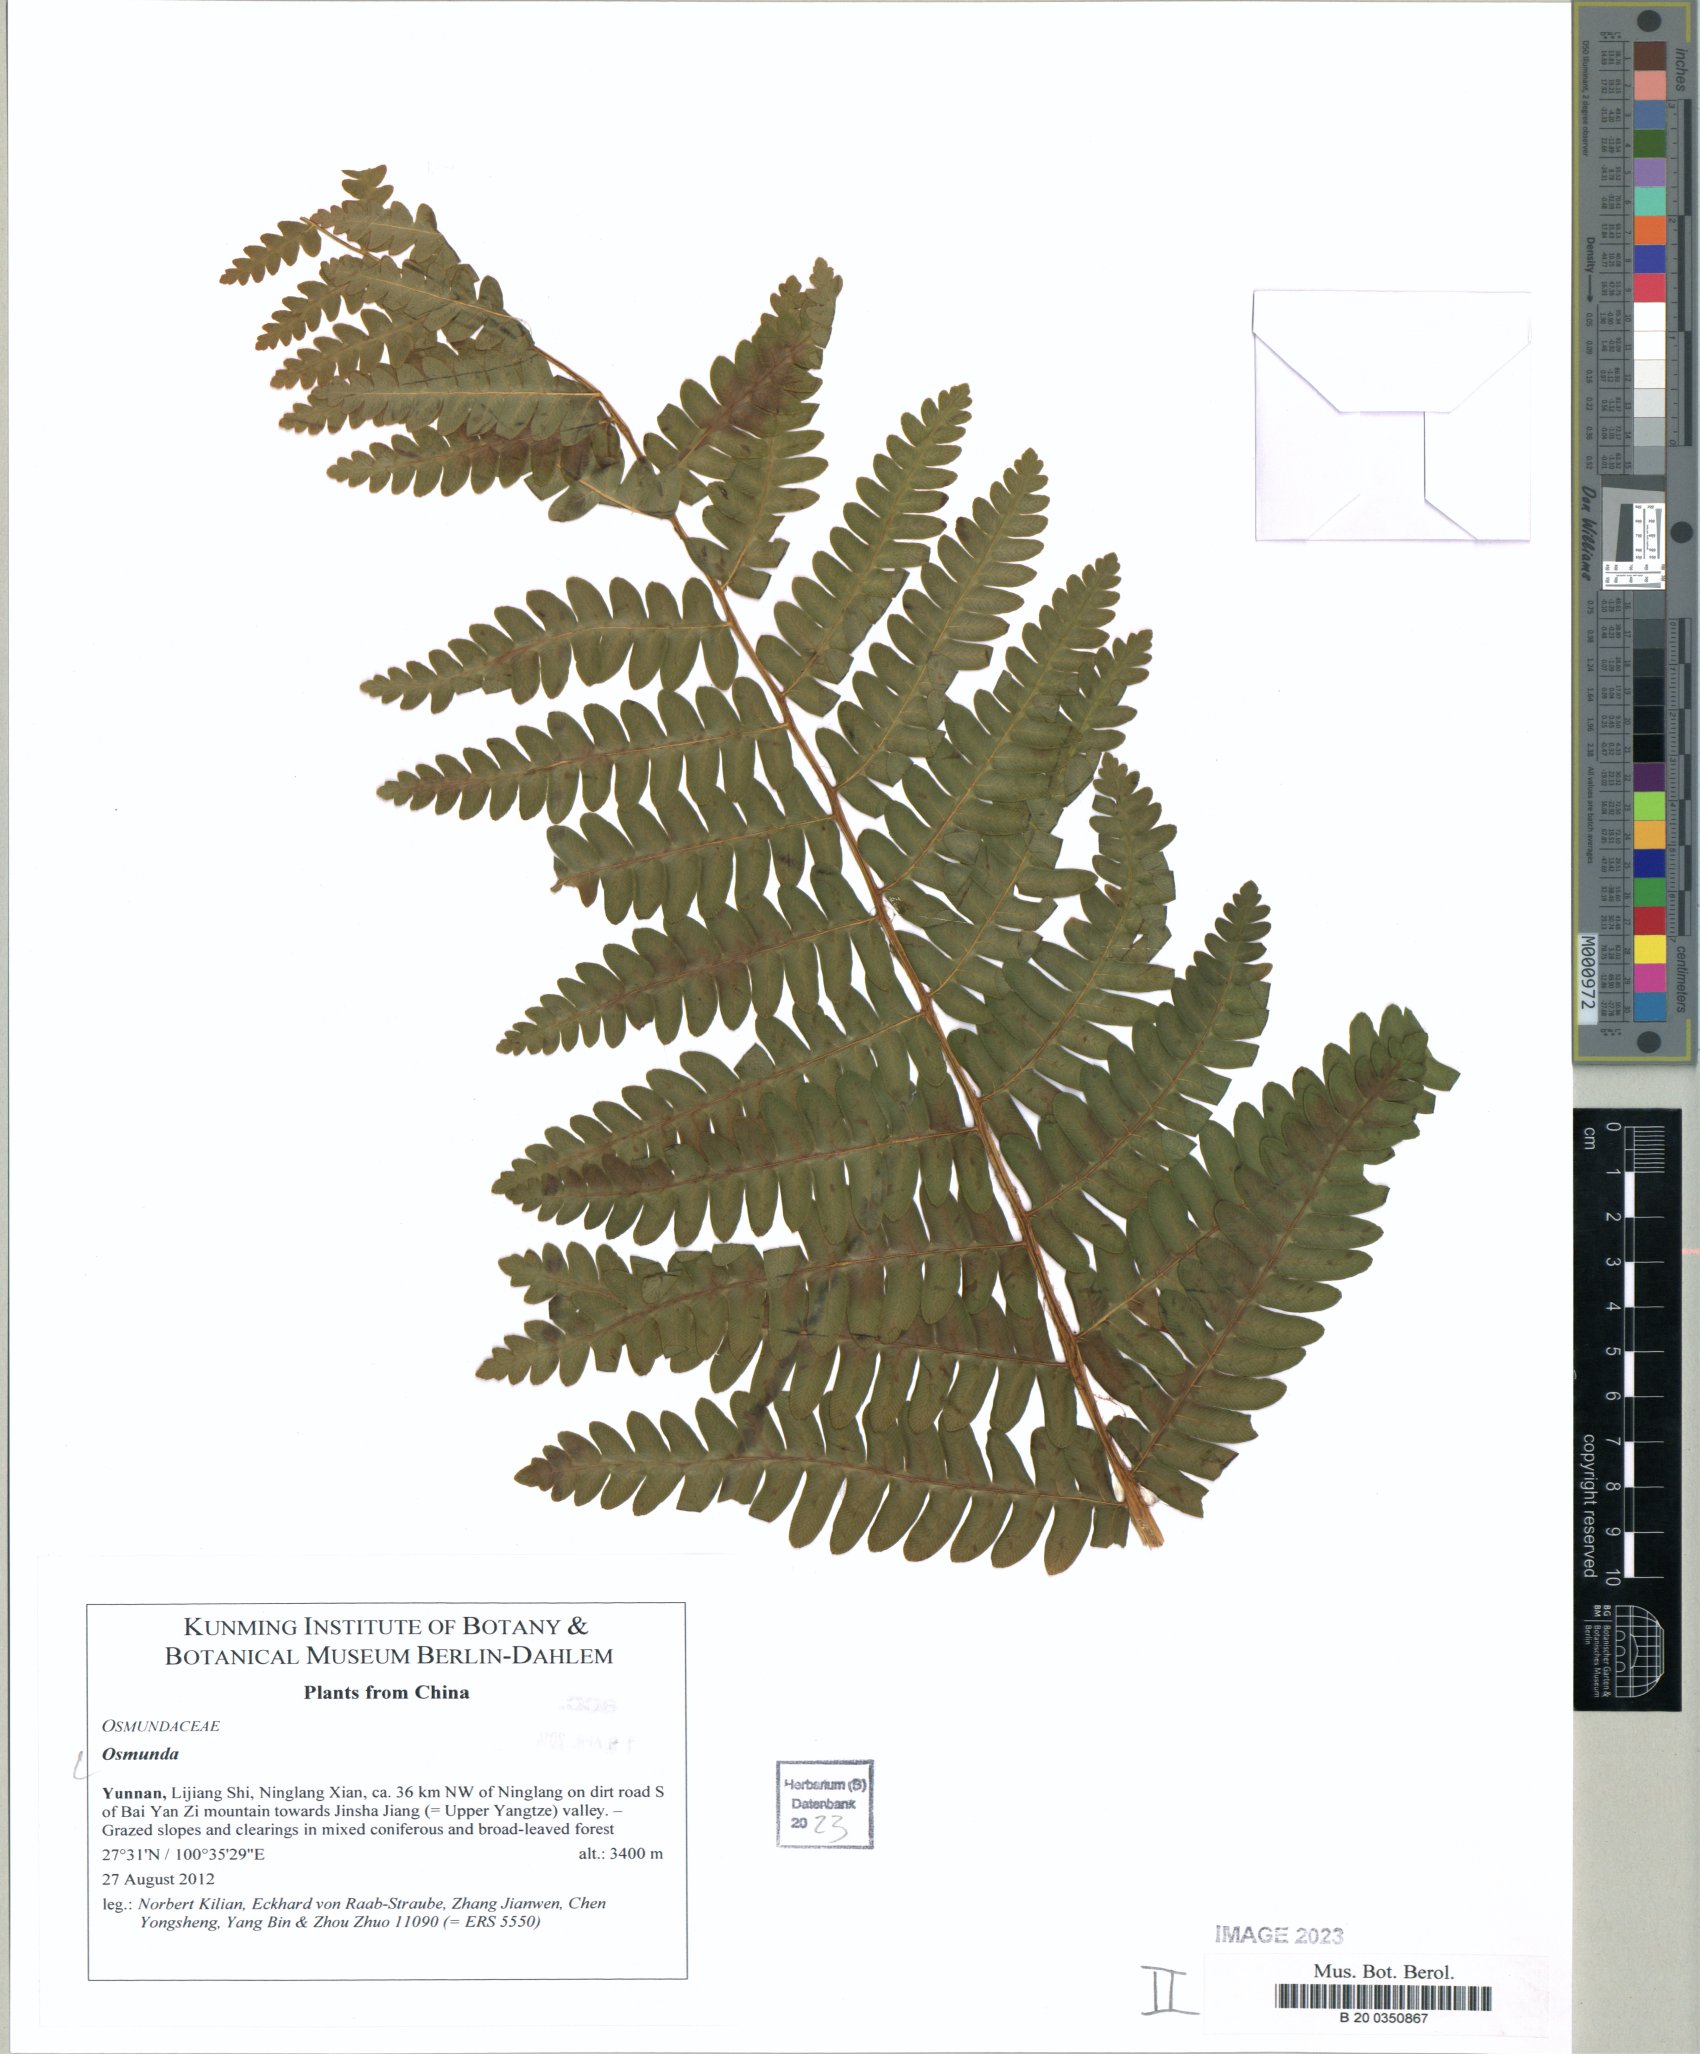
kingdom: Plantae
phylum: Tracheophyta
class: Polypodiopsida
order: Osmundales
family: Osmundaceae
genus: Osmunda
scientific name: Osmunda
